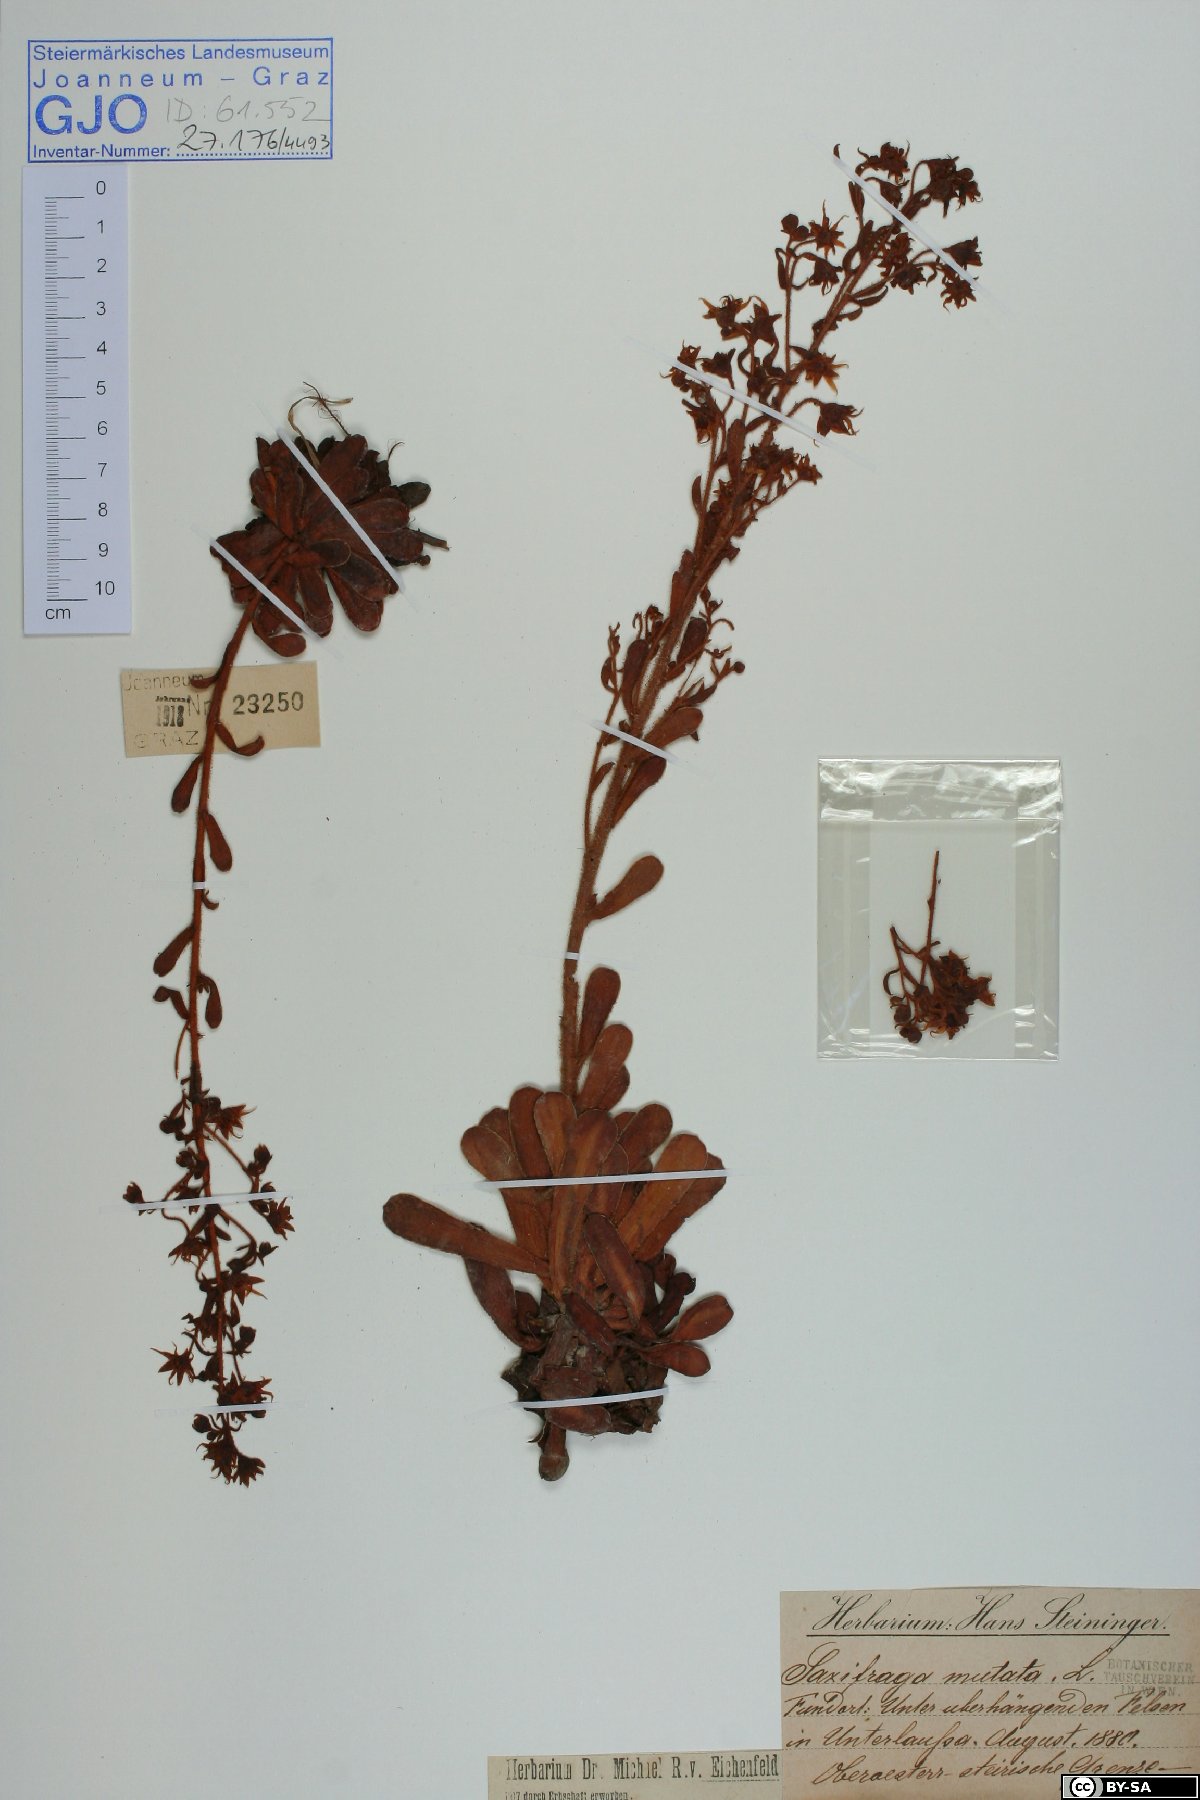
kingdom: Plantae
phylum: Tracheophyta
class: Magnoliopsida
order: Saxifragales
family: Saxifragaceae
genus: Saxifraga
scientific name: Saxifraga mutata
